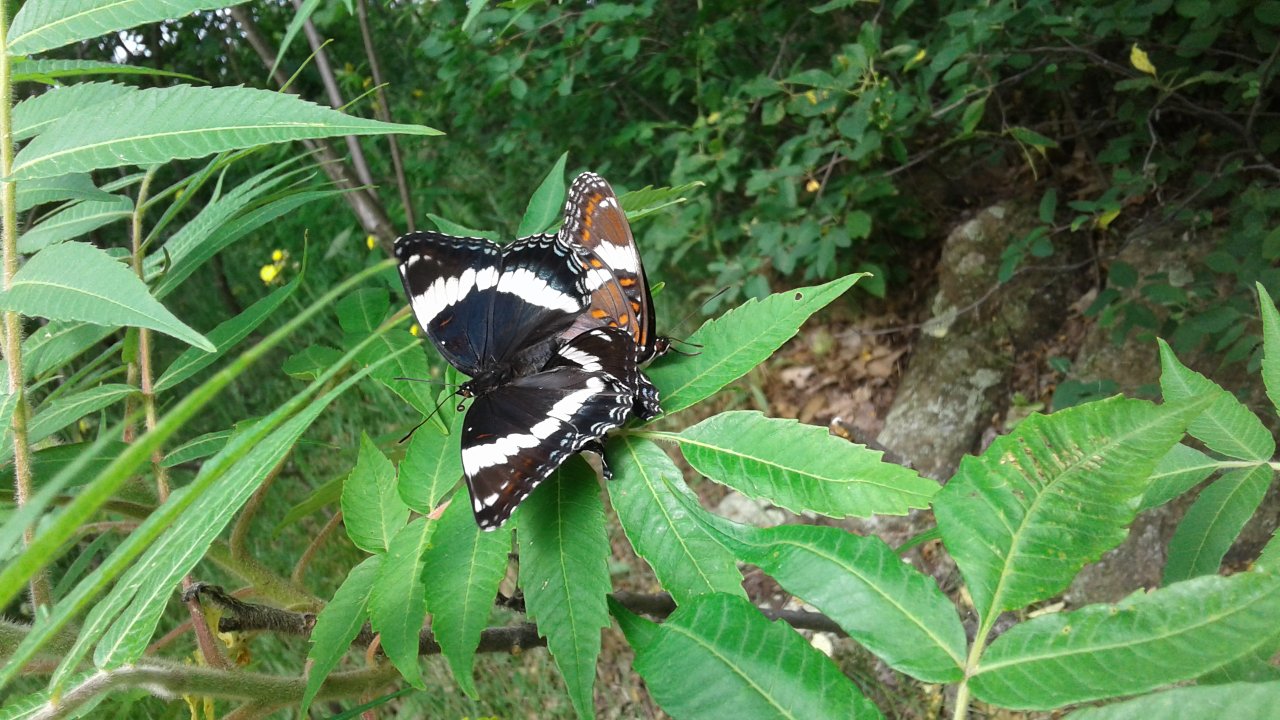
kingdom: Animalia
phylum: Arthropoda
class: Insecta
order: Lepidoptera
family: Nymphalidae
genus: Limenitis
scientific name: Limenitis arthemis
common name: Red-spotted Admiral
